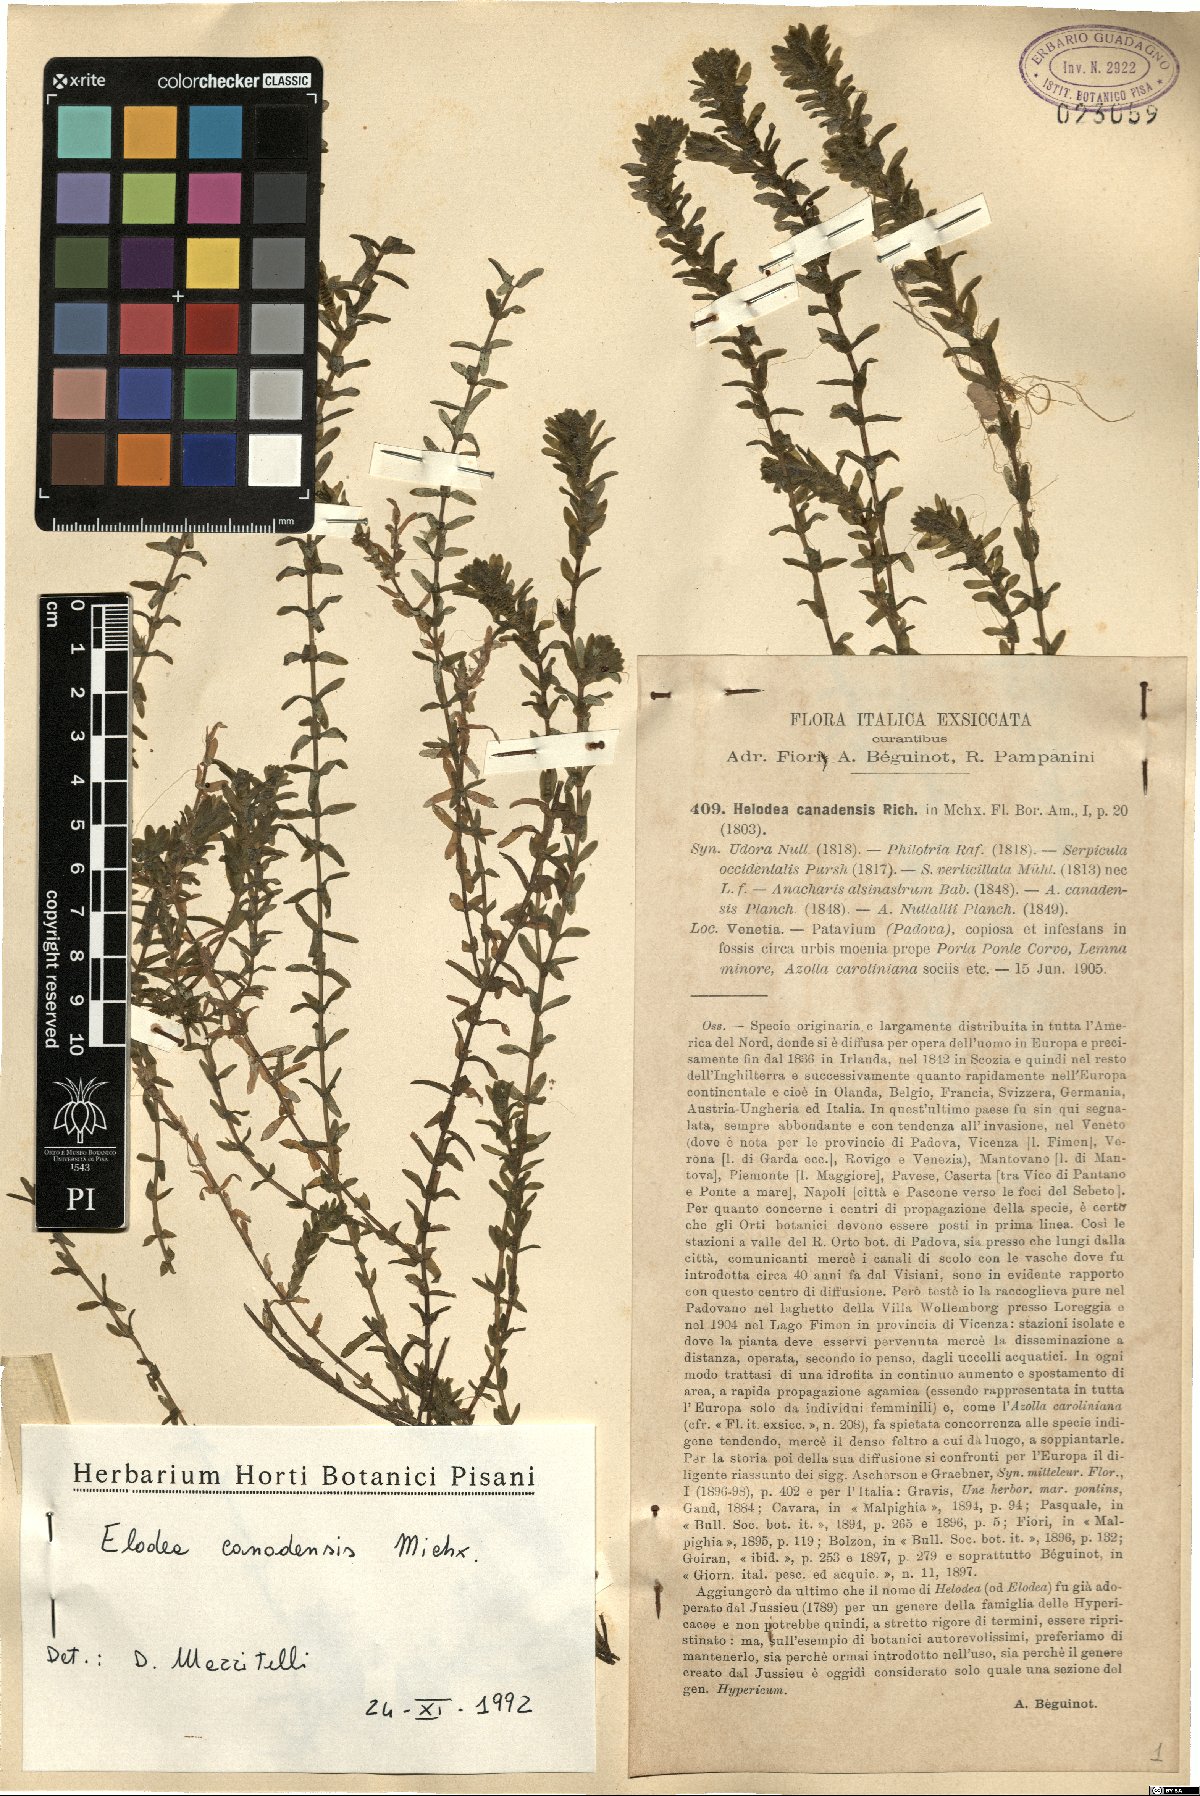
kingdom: Plantae
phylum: Tracheophyta
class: Liliopsida
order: Alismatales
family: Hydrocharitaceae
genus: Elodea
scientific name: Elodea canadensis
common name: Canadian waterweed
